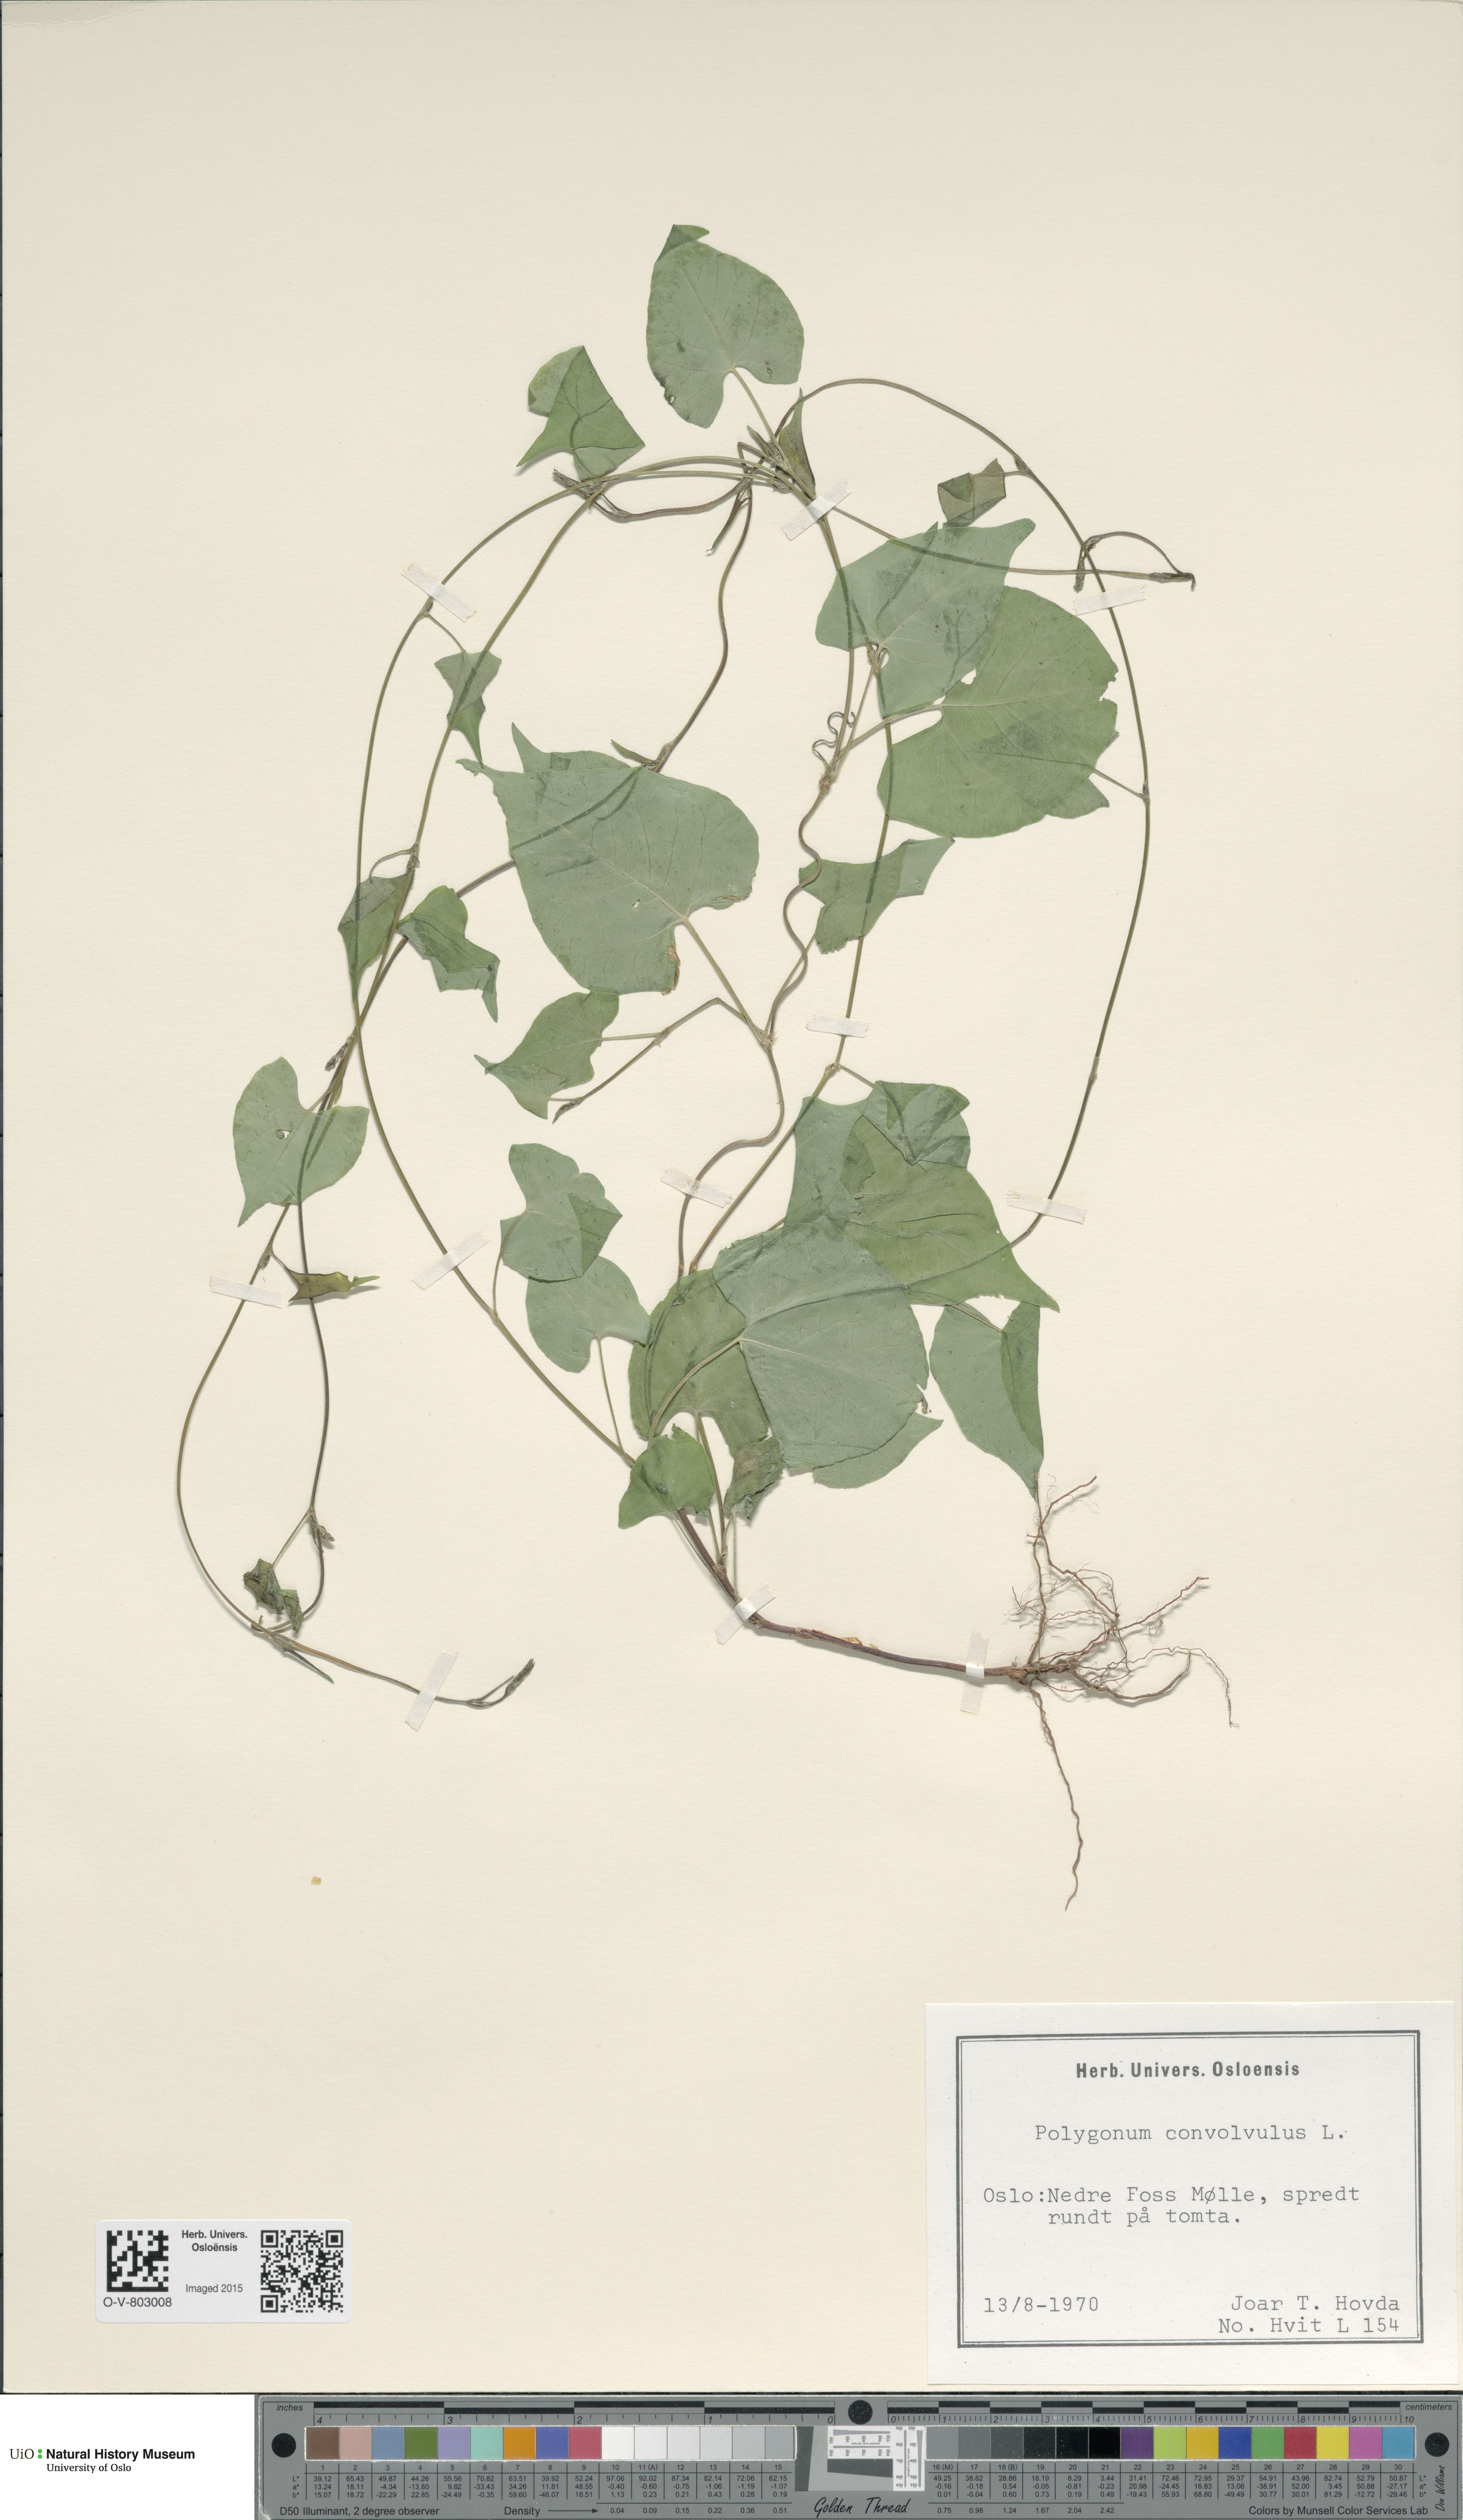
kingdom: Plantae
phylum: Tracheophyta
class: Magnoliopsida
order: Caryophyllales
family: Polygonaceae
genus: Fallopia
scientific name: Fallopia convolvulus
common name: Black bindweed
